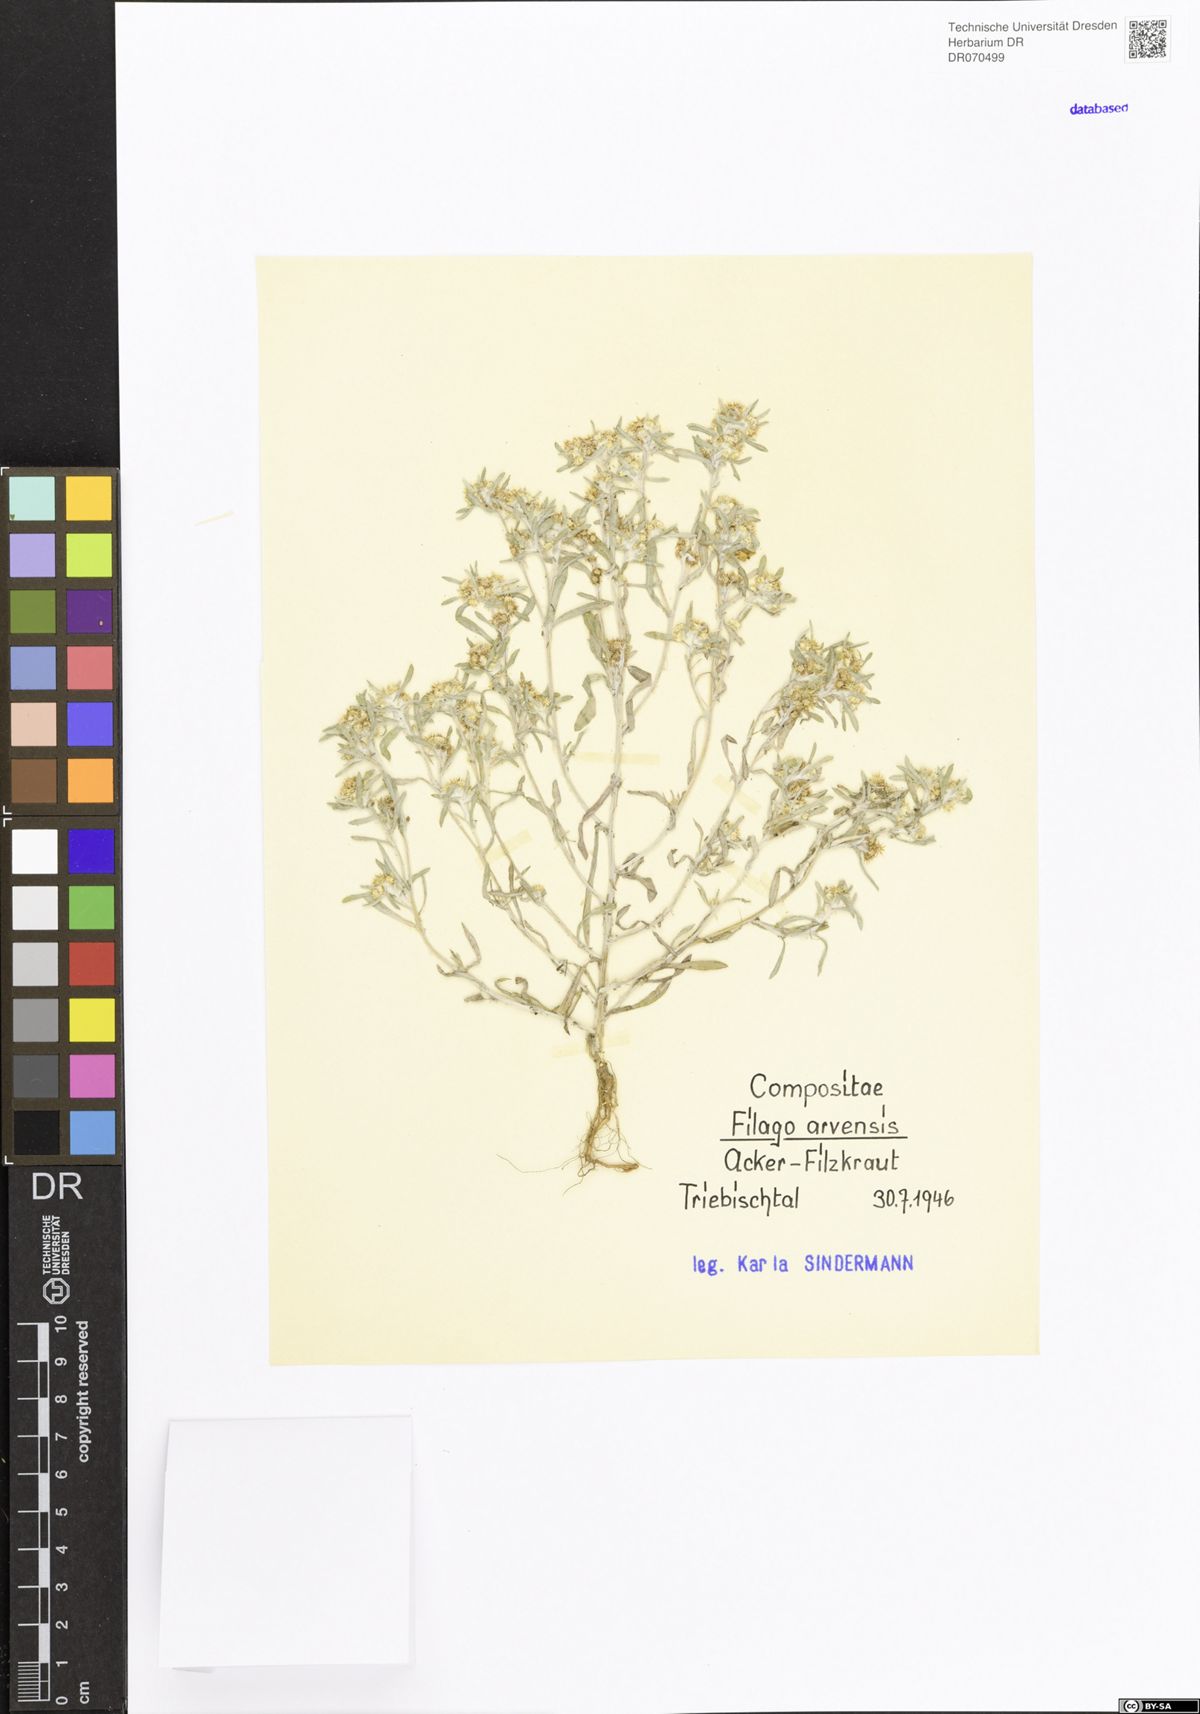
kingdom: Plantae
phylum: Tracheophyta
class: Magnoliopsida
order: Asterales
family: Asteraceae
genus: Filago
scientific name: Filago arvensis
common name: Field cudweed
